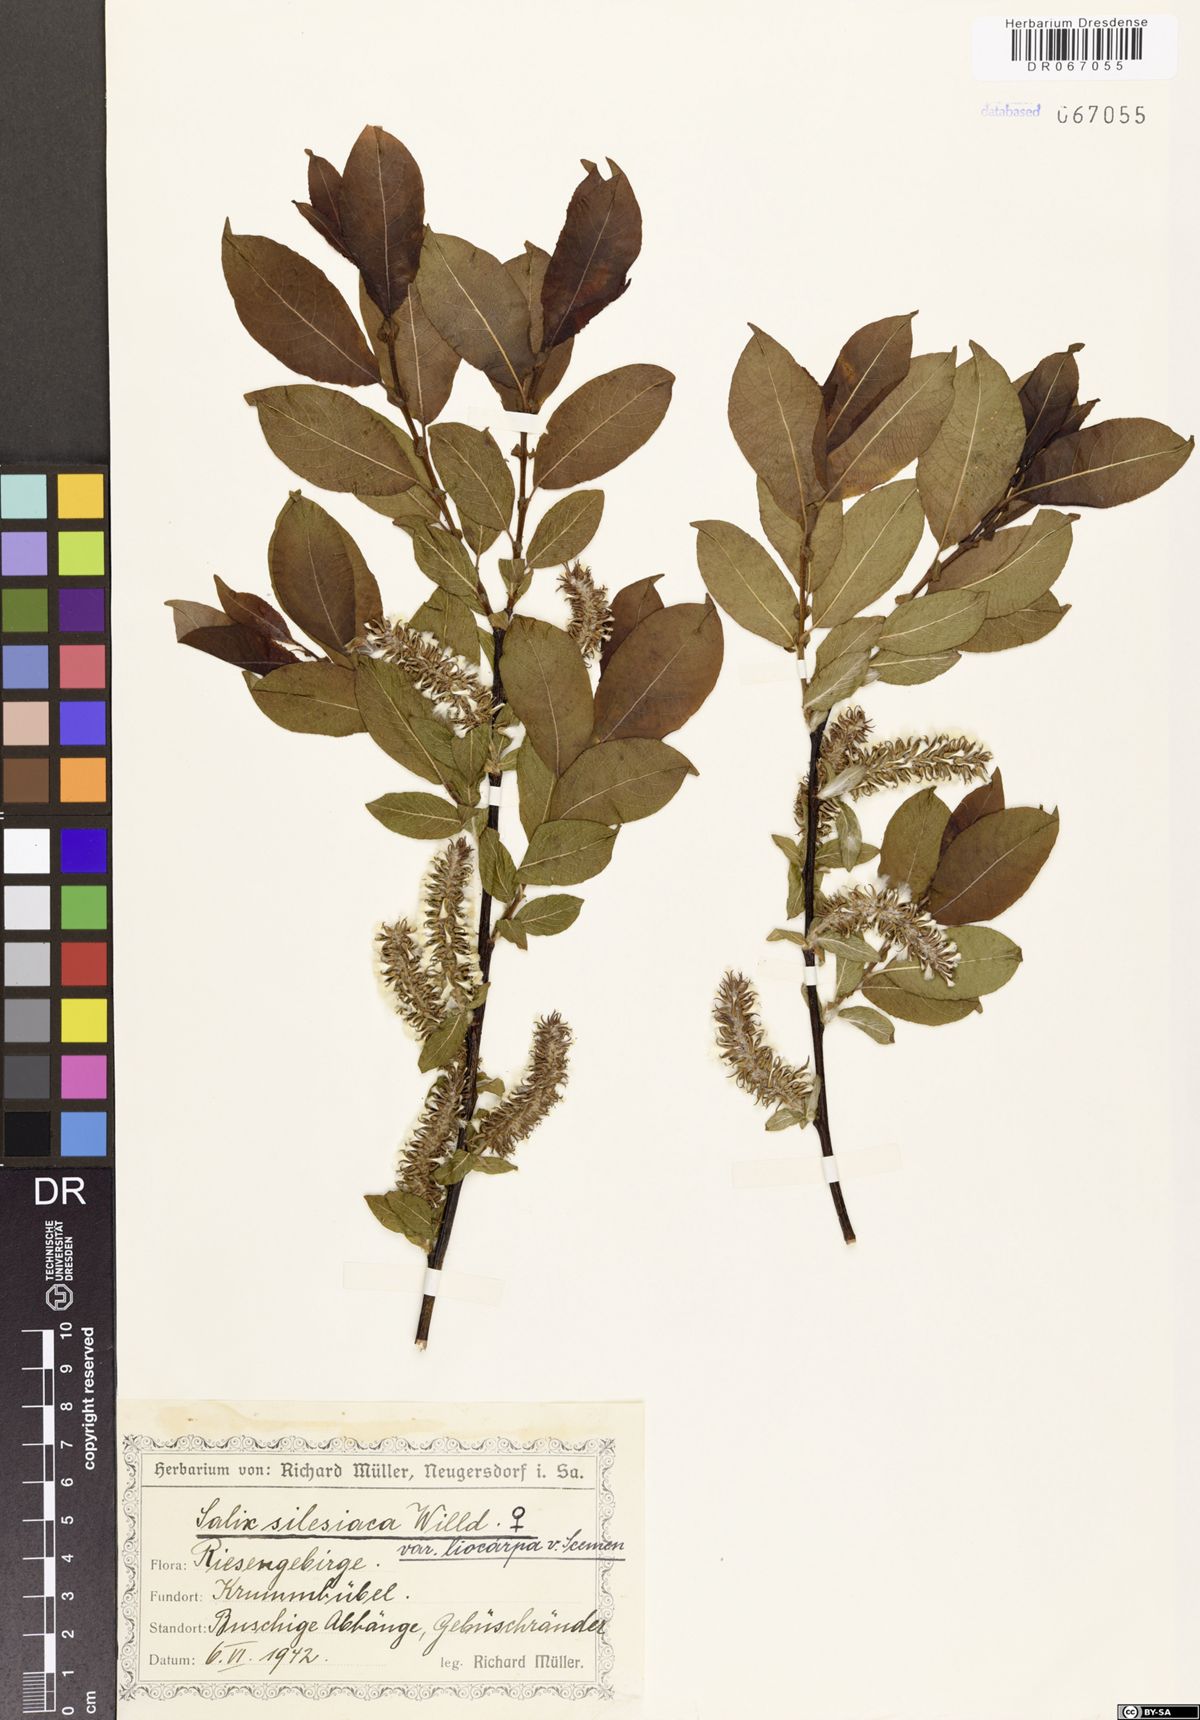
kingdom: Plantae
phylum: Tracheophyta
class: Magnoliopsida
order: Malpighiales
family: Salicaceae
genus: Salix
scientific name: Salix silesiaca
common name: Silesian willow
